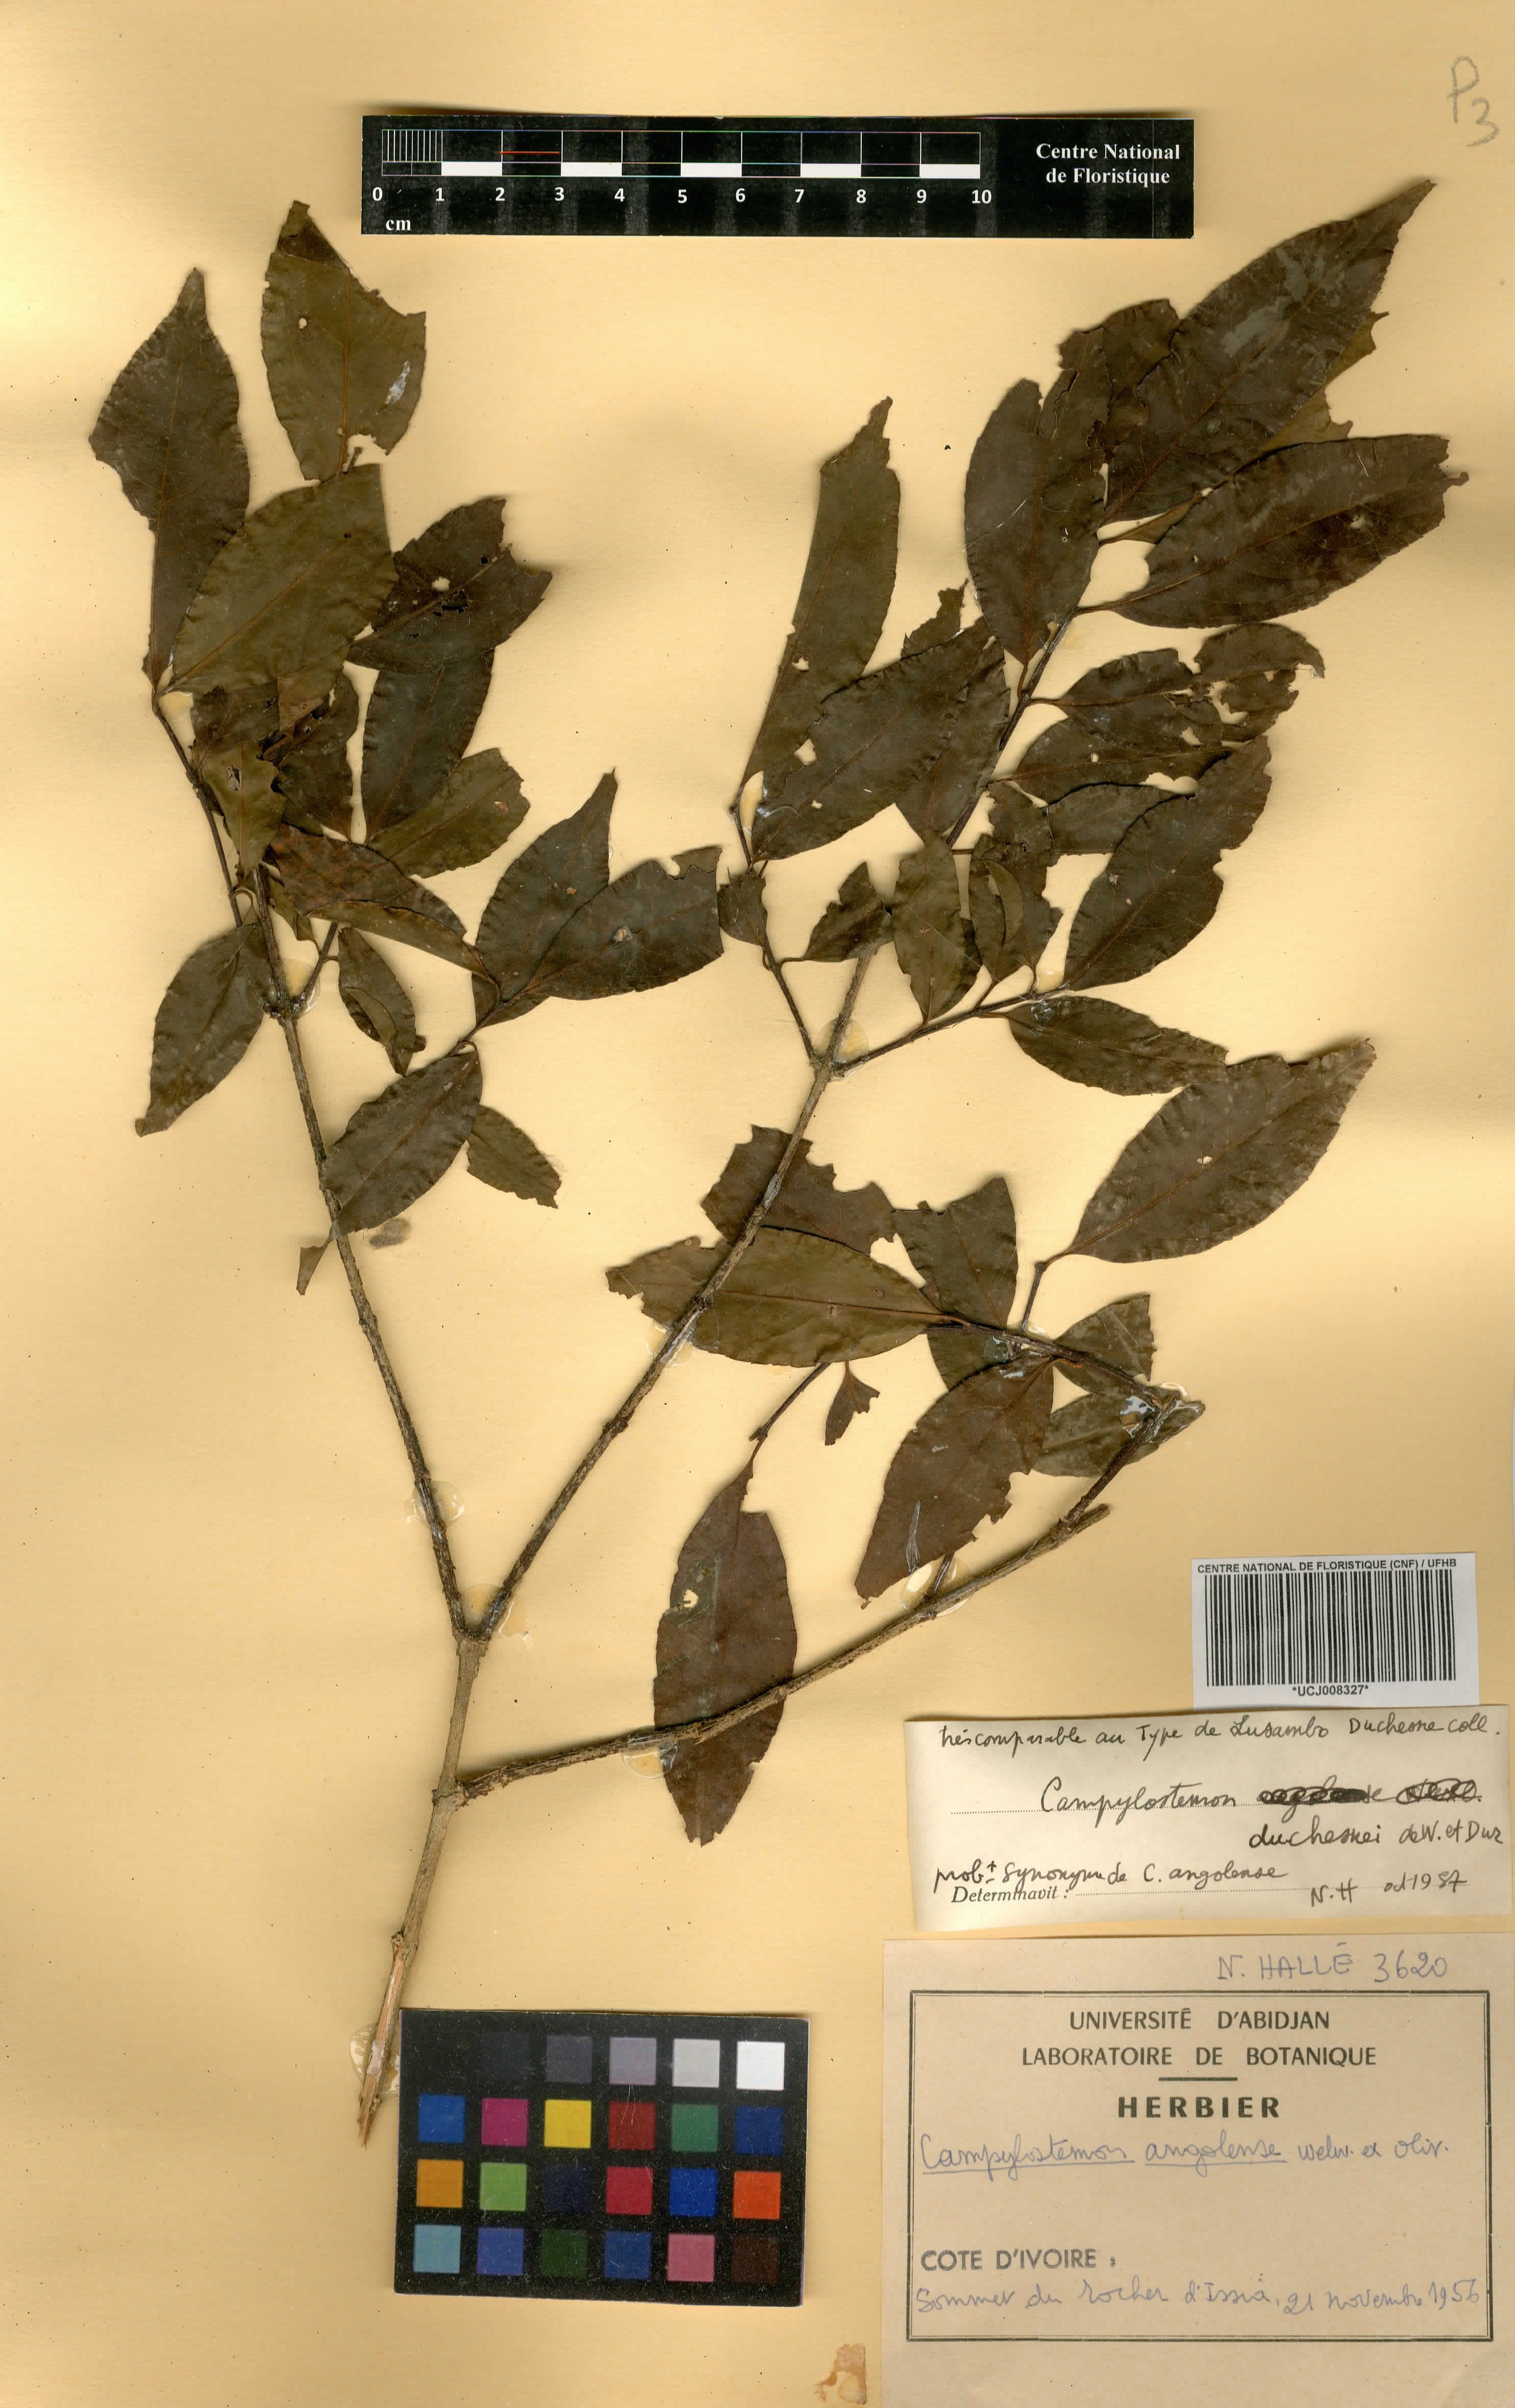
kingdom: Plantae
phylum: Tracheophyta
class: Magnoliopsida
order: Celastrales
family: Celastraceae
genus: Campylostemon
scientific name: Campylostemon angolense
